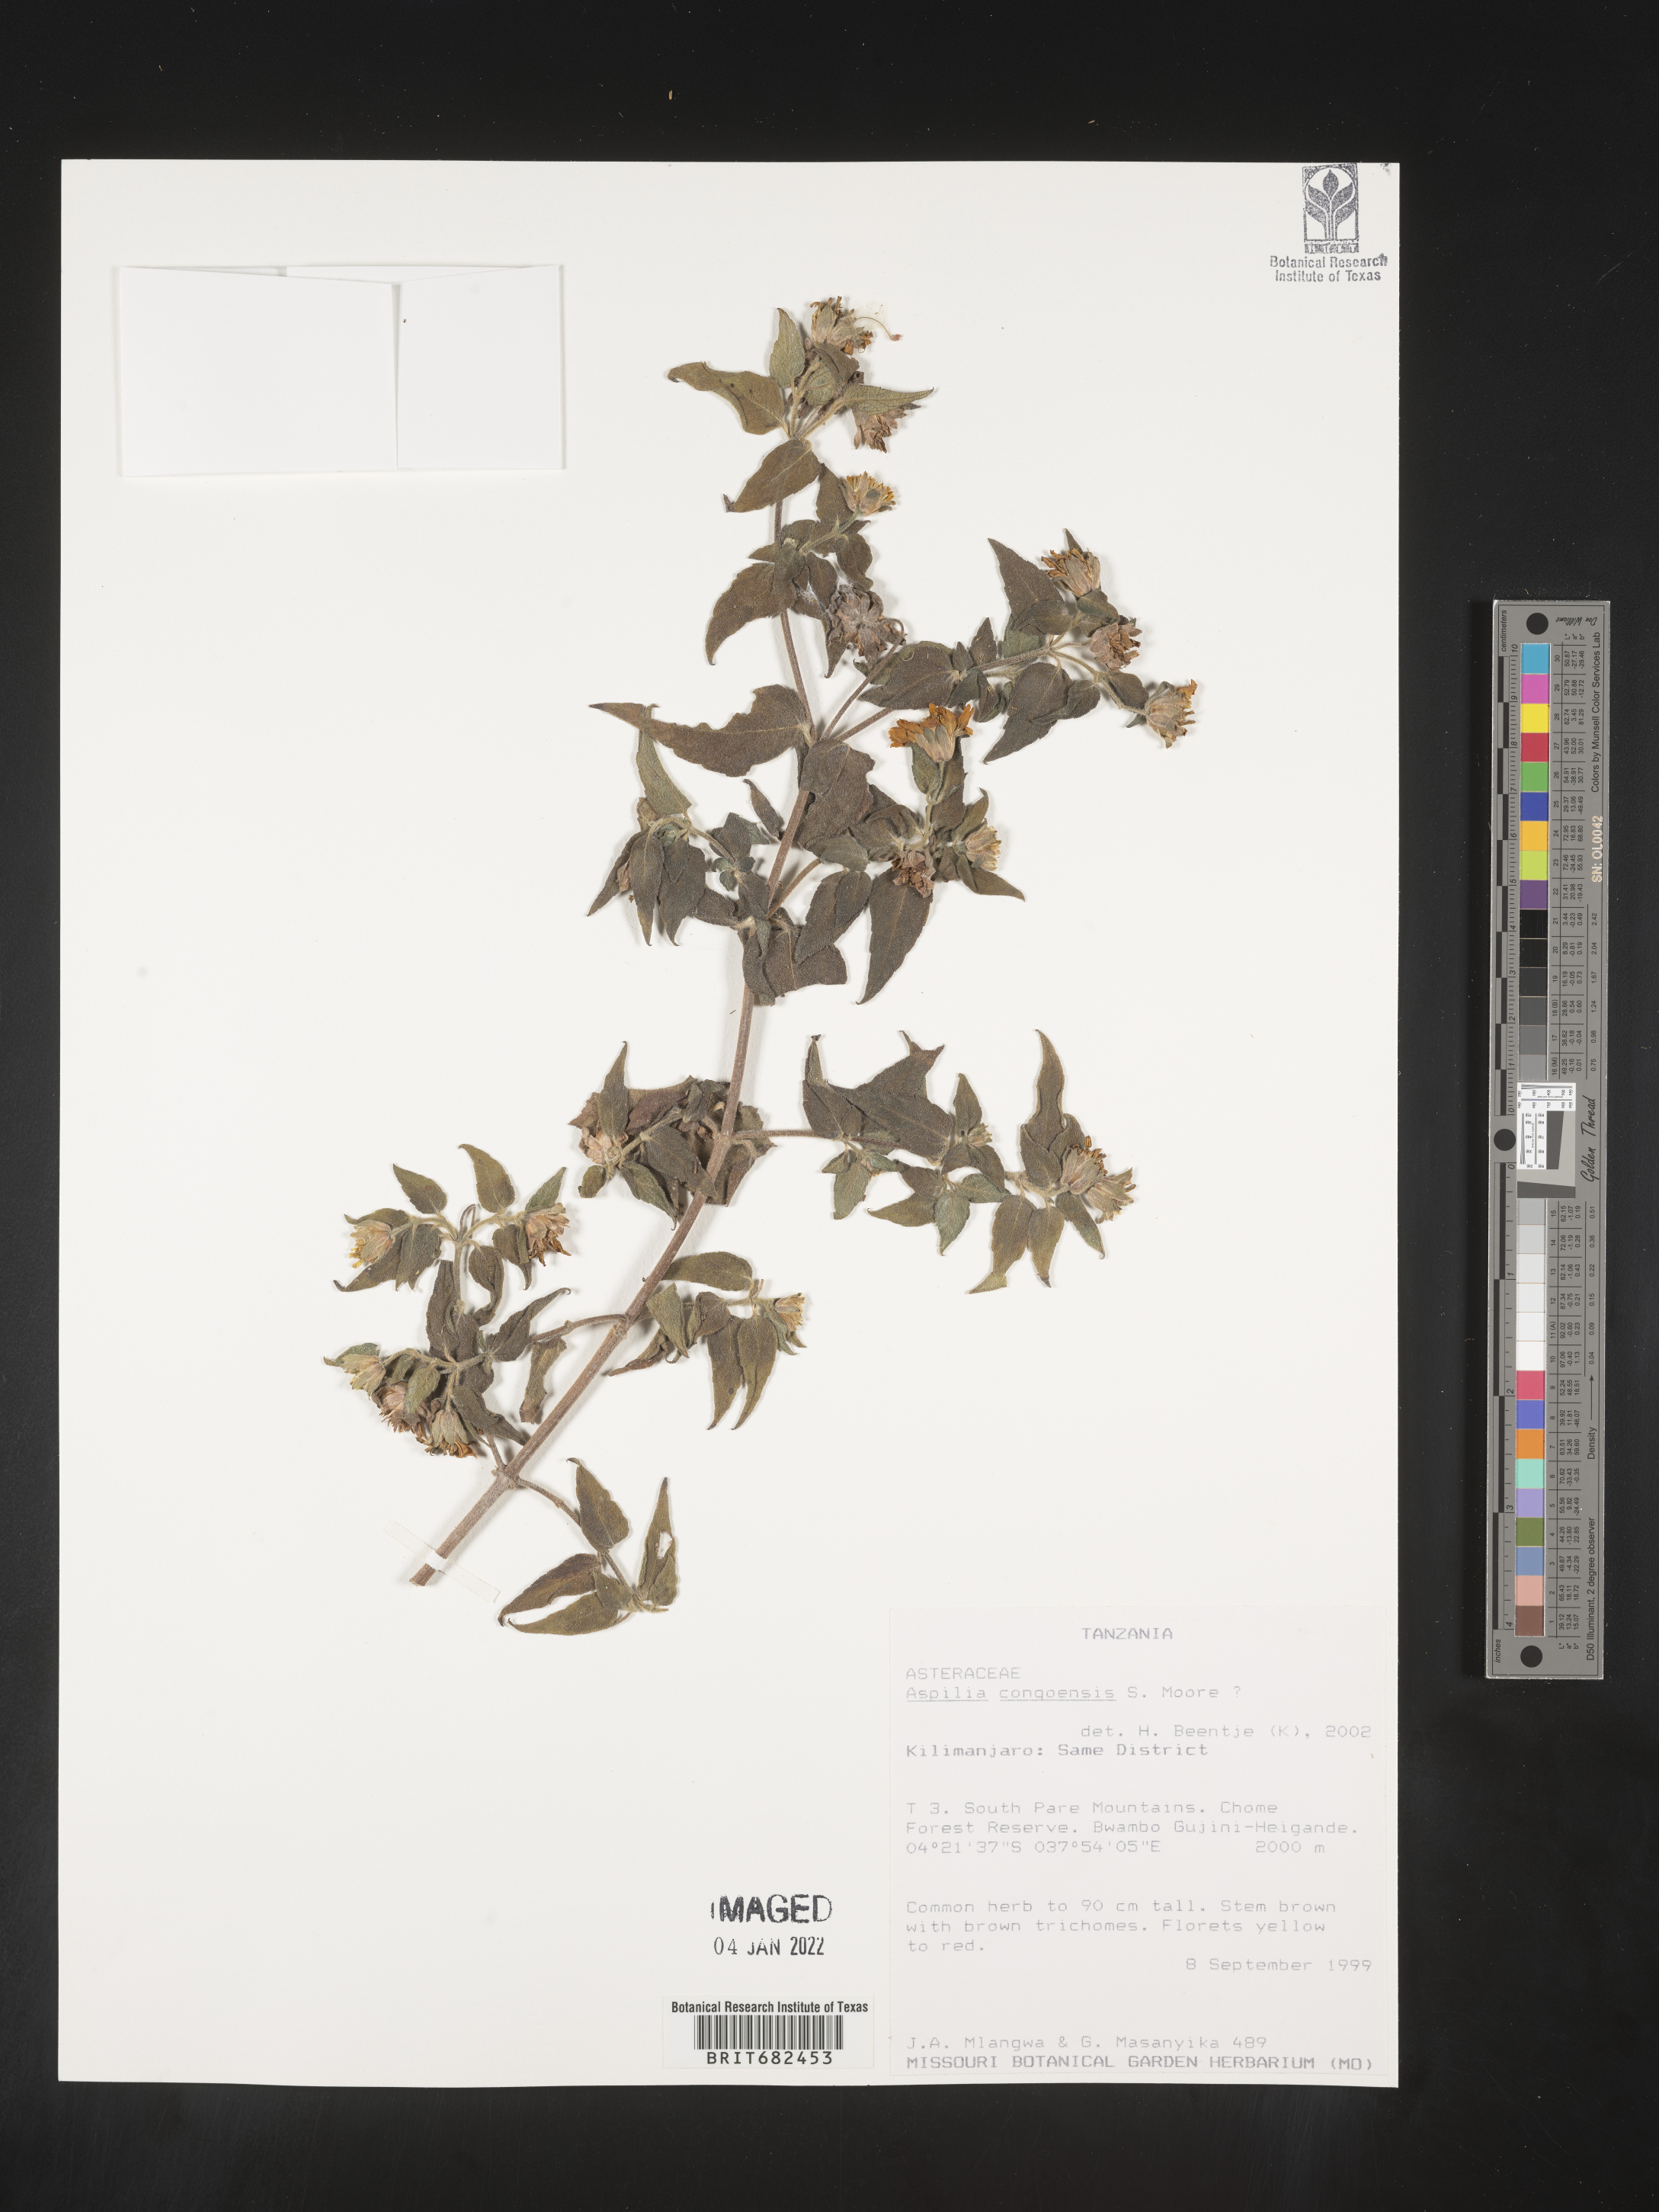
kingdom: Plantae
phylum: Tracheophyta
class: Magnoliopsida
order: Asterales
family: Asteraceae
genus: Aspilia
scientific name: Aspilia
